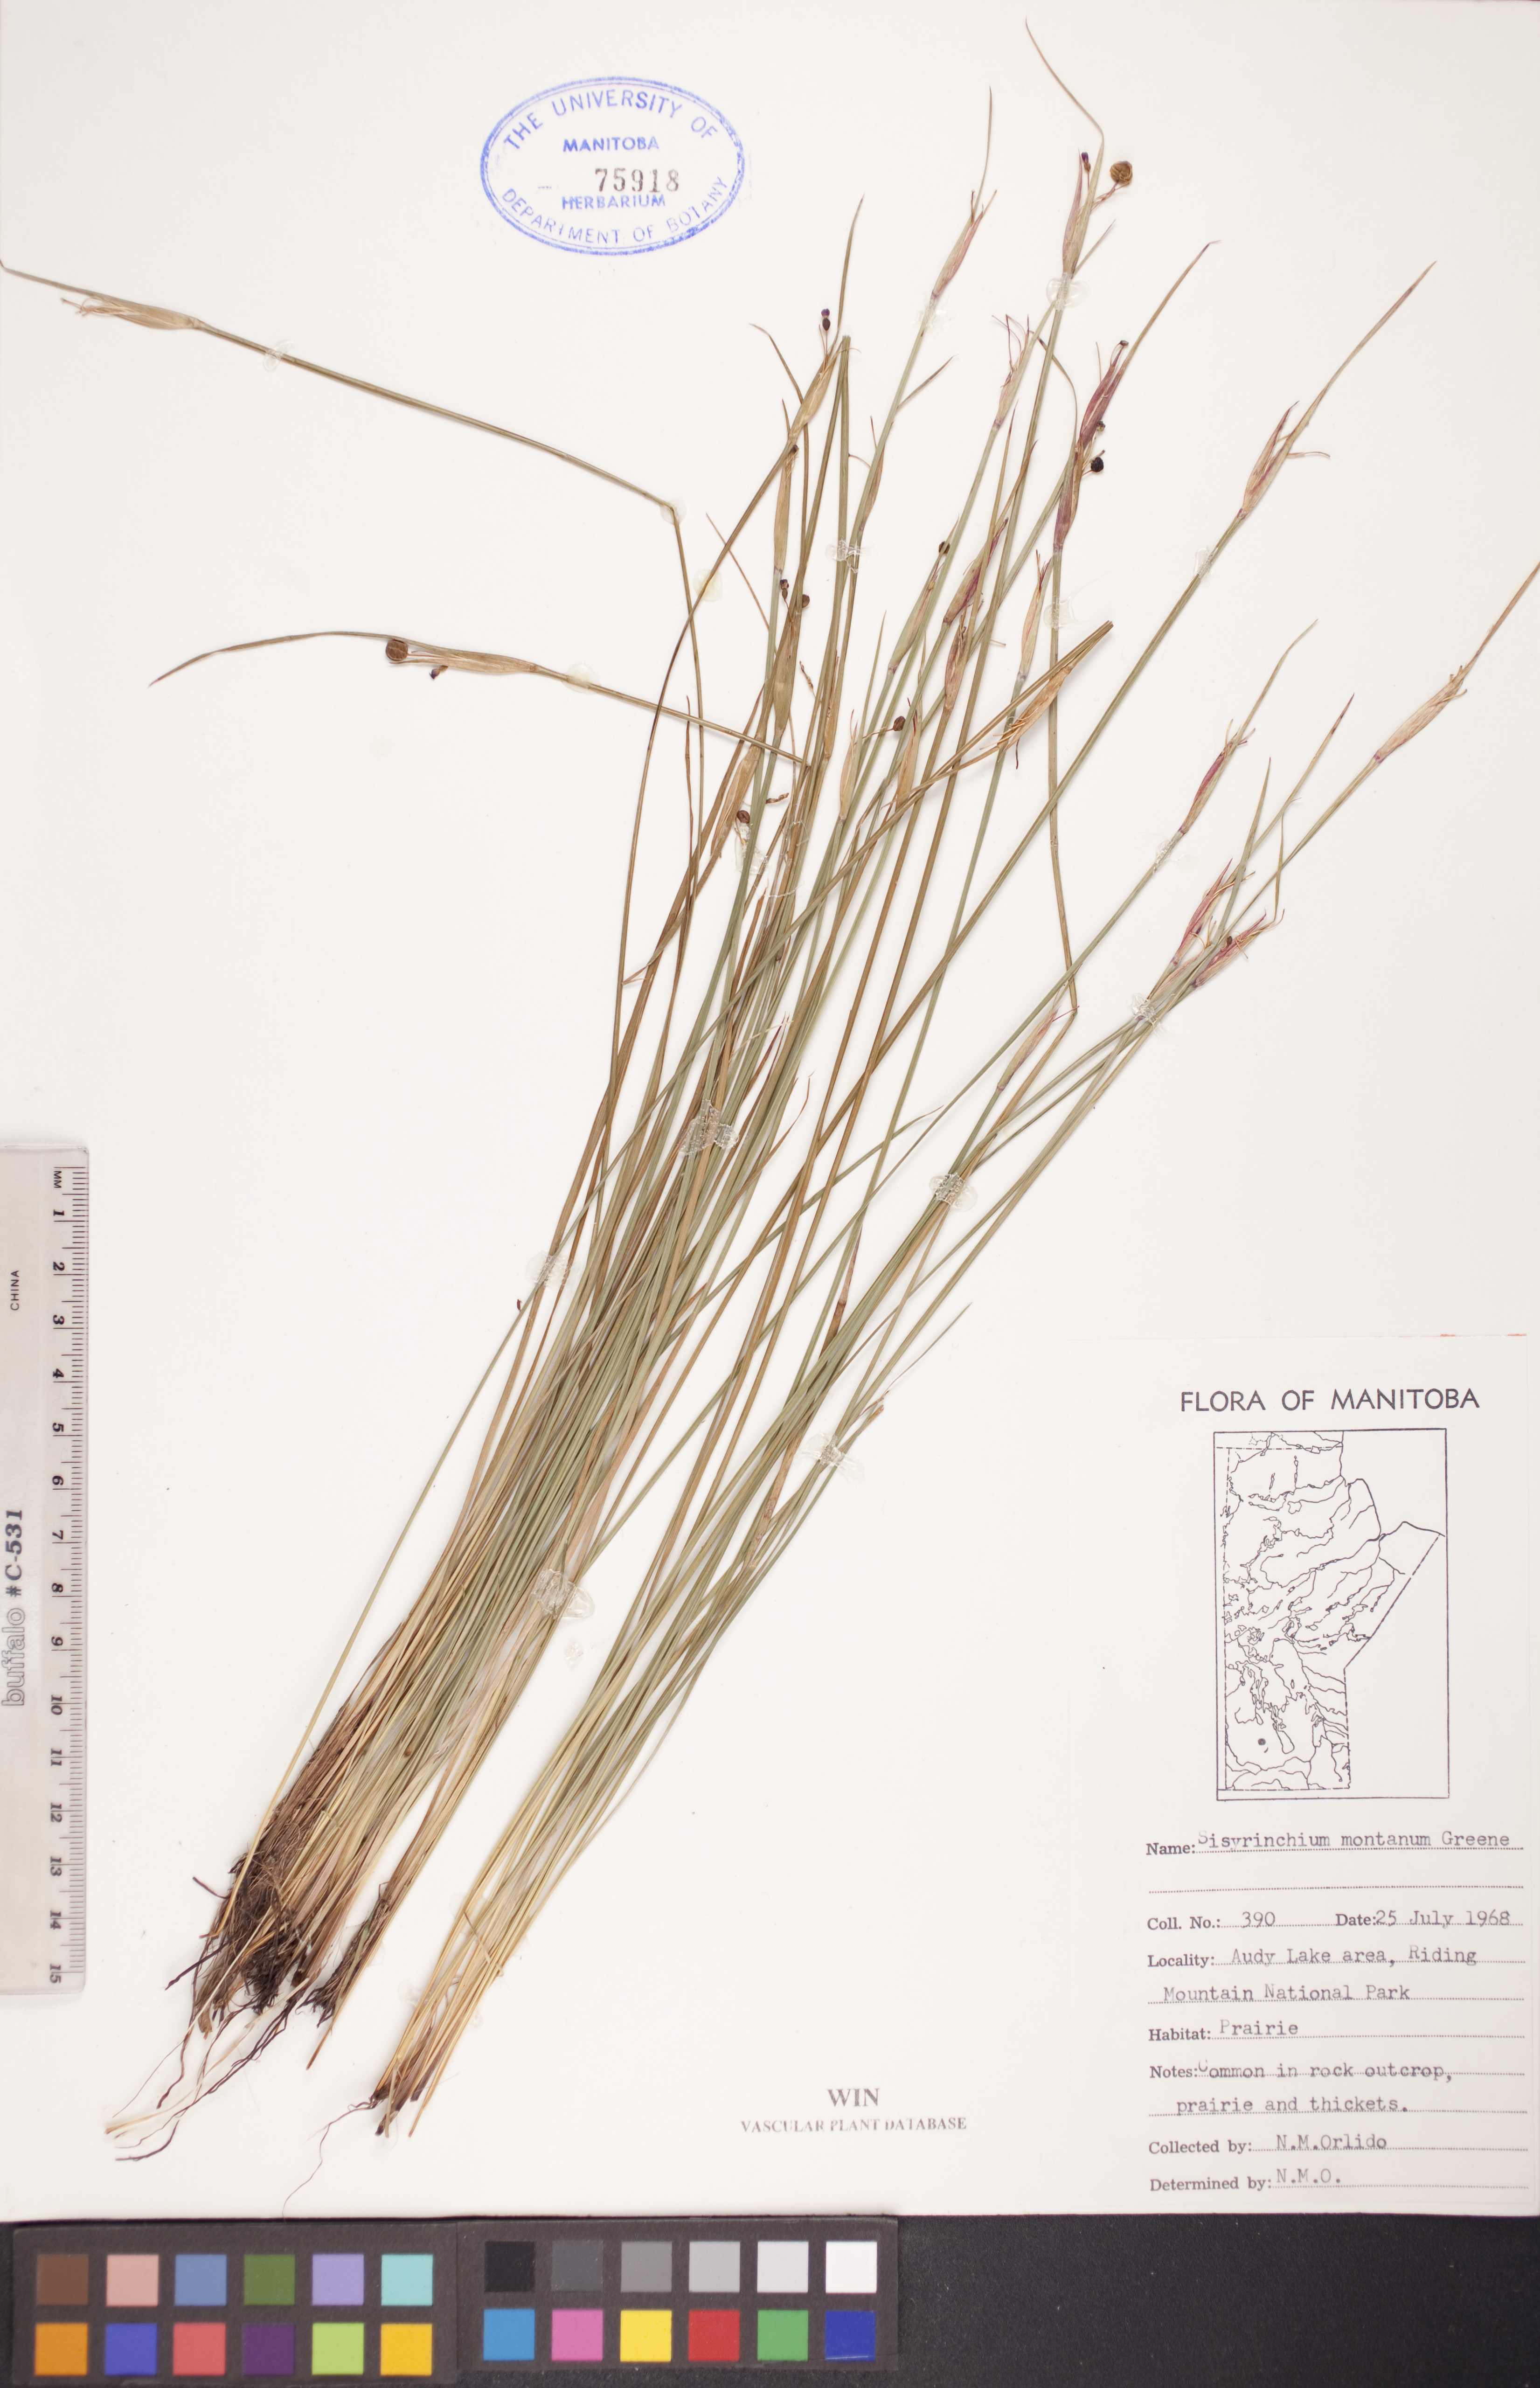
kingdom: Plantae
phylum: Tracheophyta
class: Liliopsida
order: Asparagales
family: Iridaceae
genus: Sisyrinchium
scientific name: Sisyrinchium montanum
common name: American blue-eyed-grass
